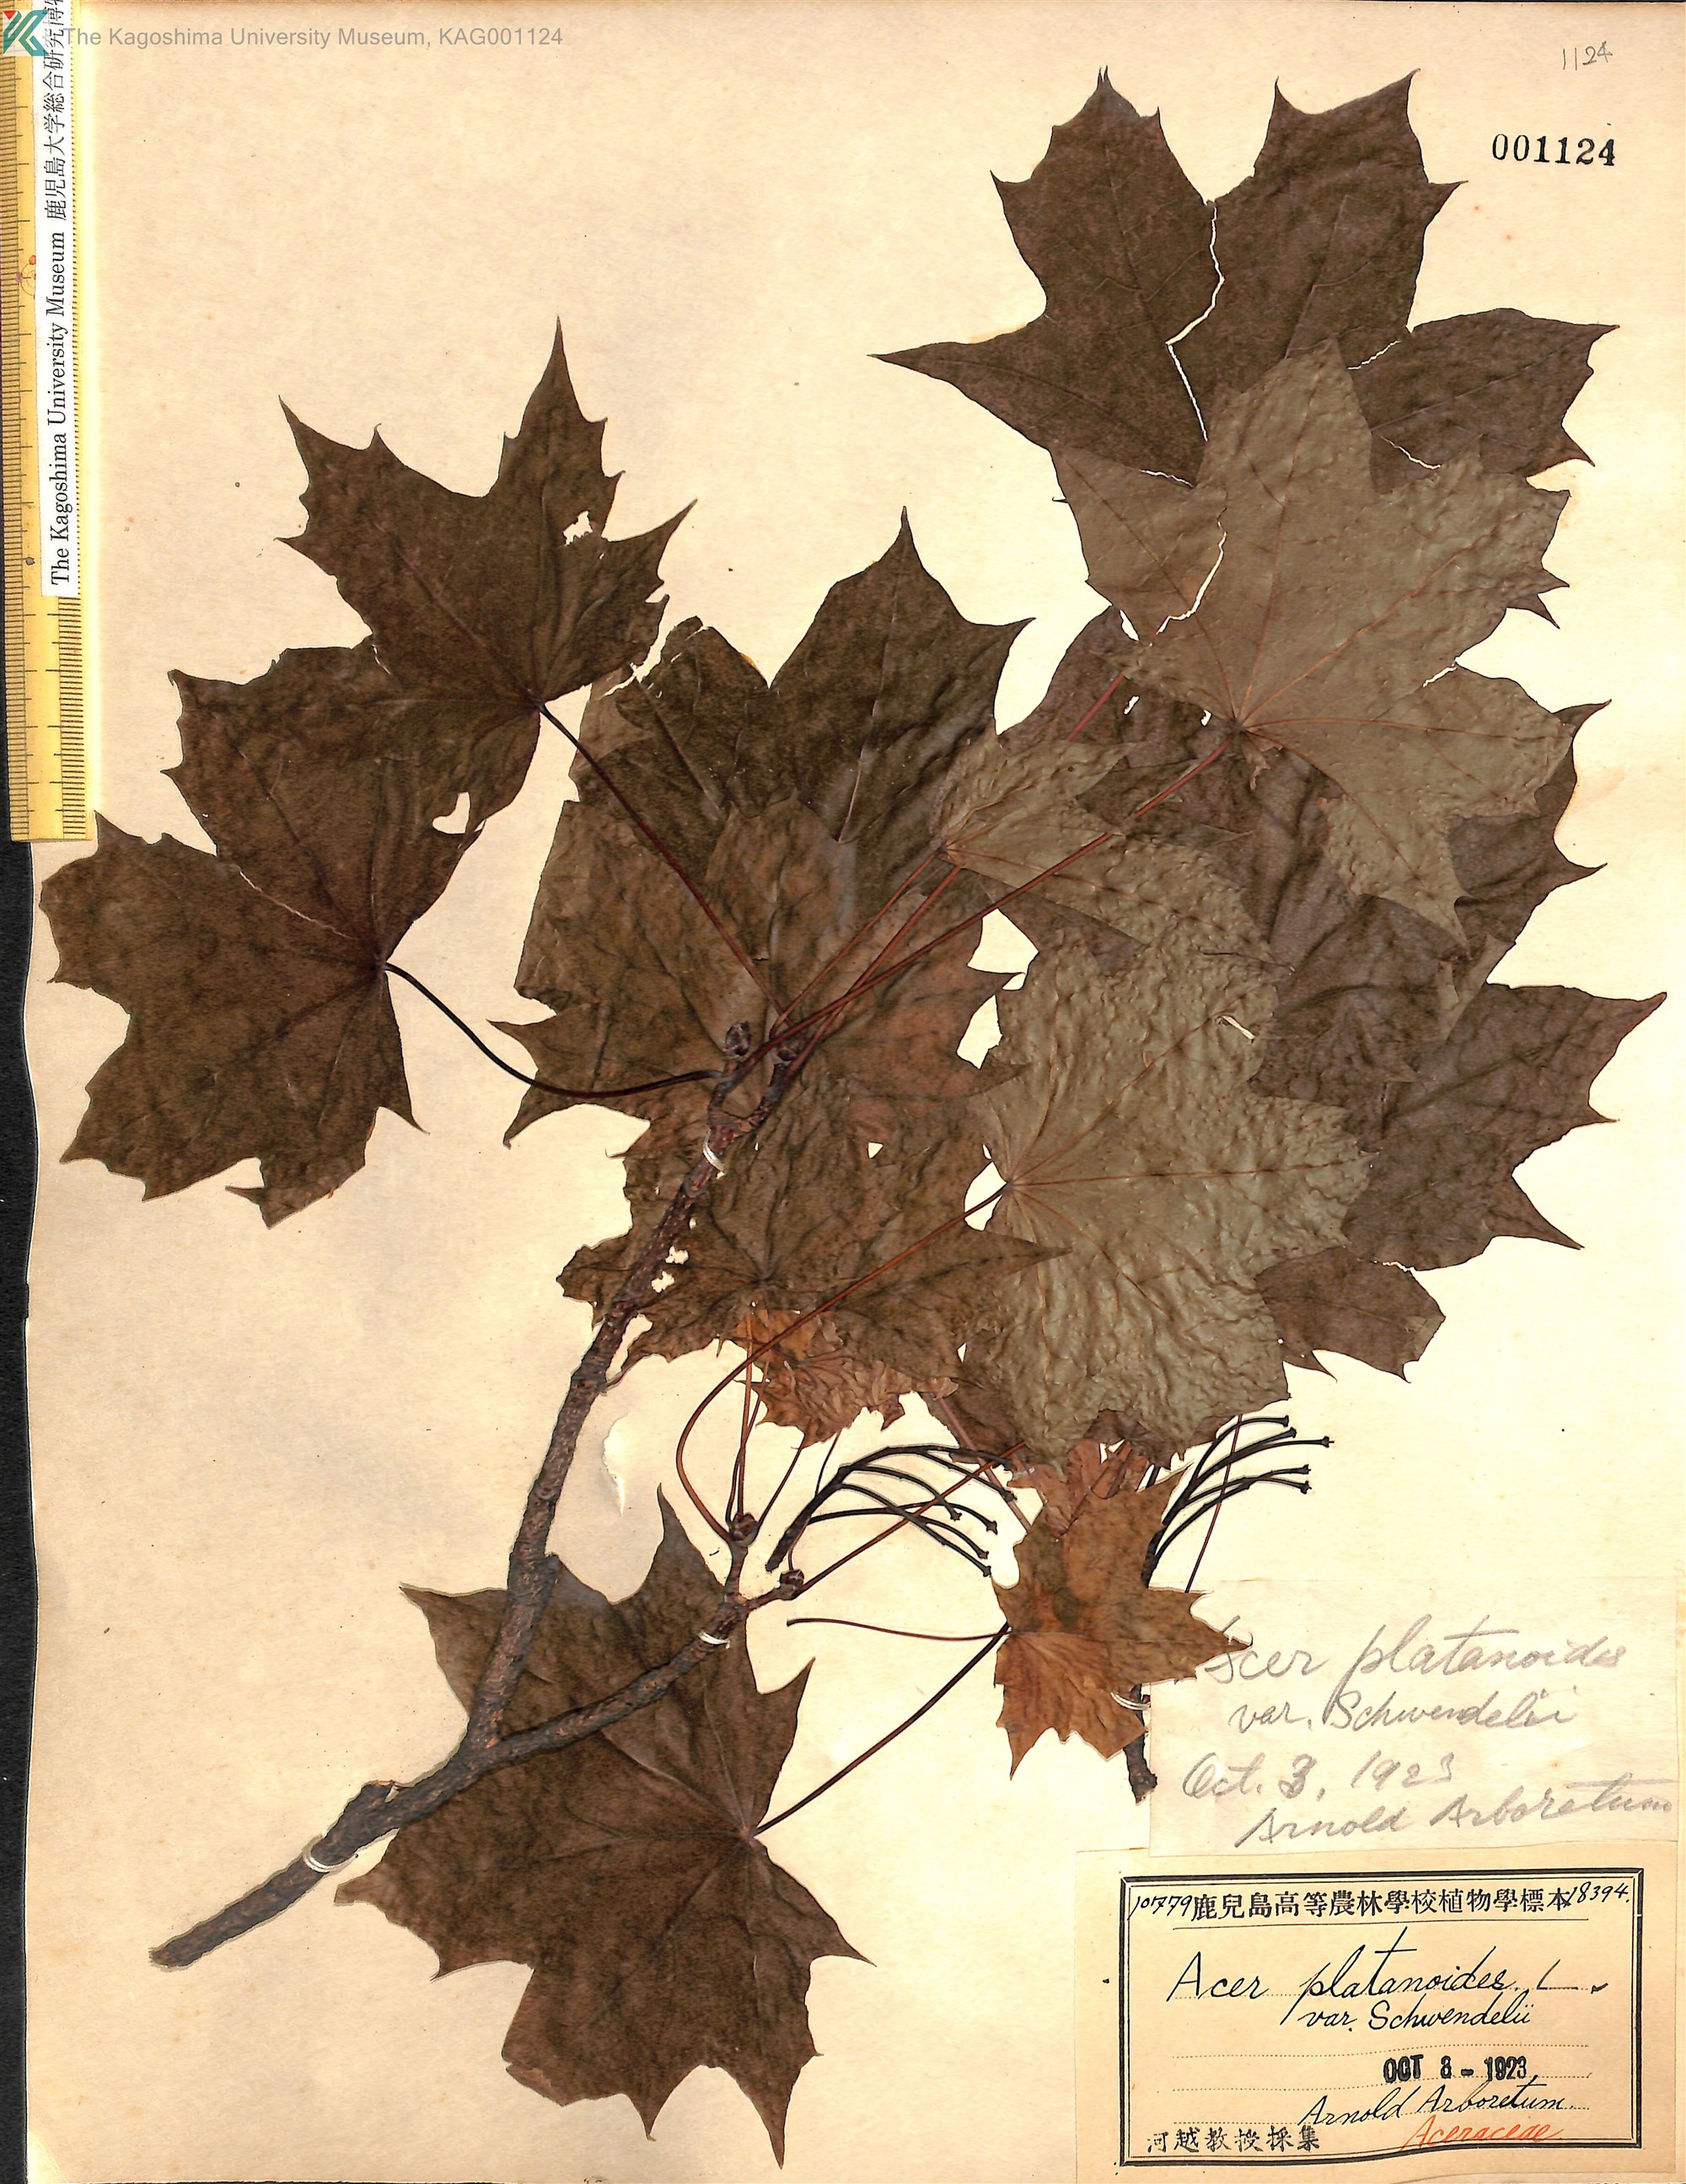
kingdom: Plantae
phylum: Tracheophyta
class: Magnoliopsida
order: Sapindales
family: Sapindaceae
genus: Acer
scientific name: Acer platanoides
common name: Norway maple
